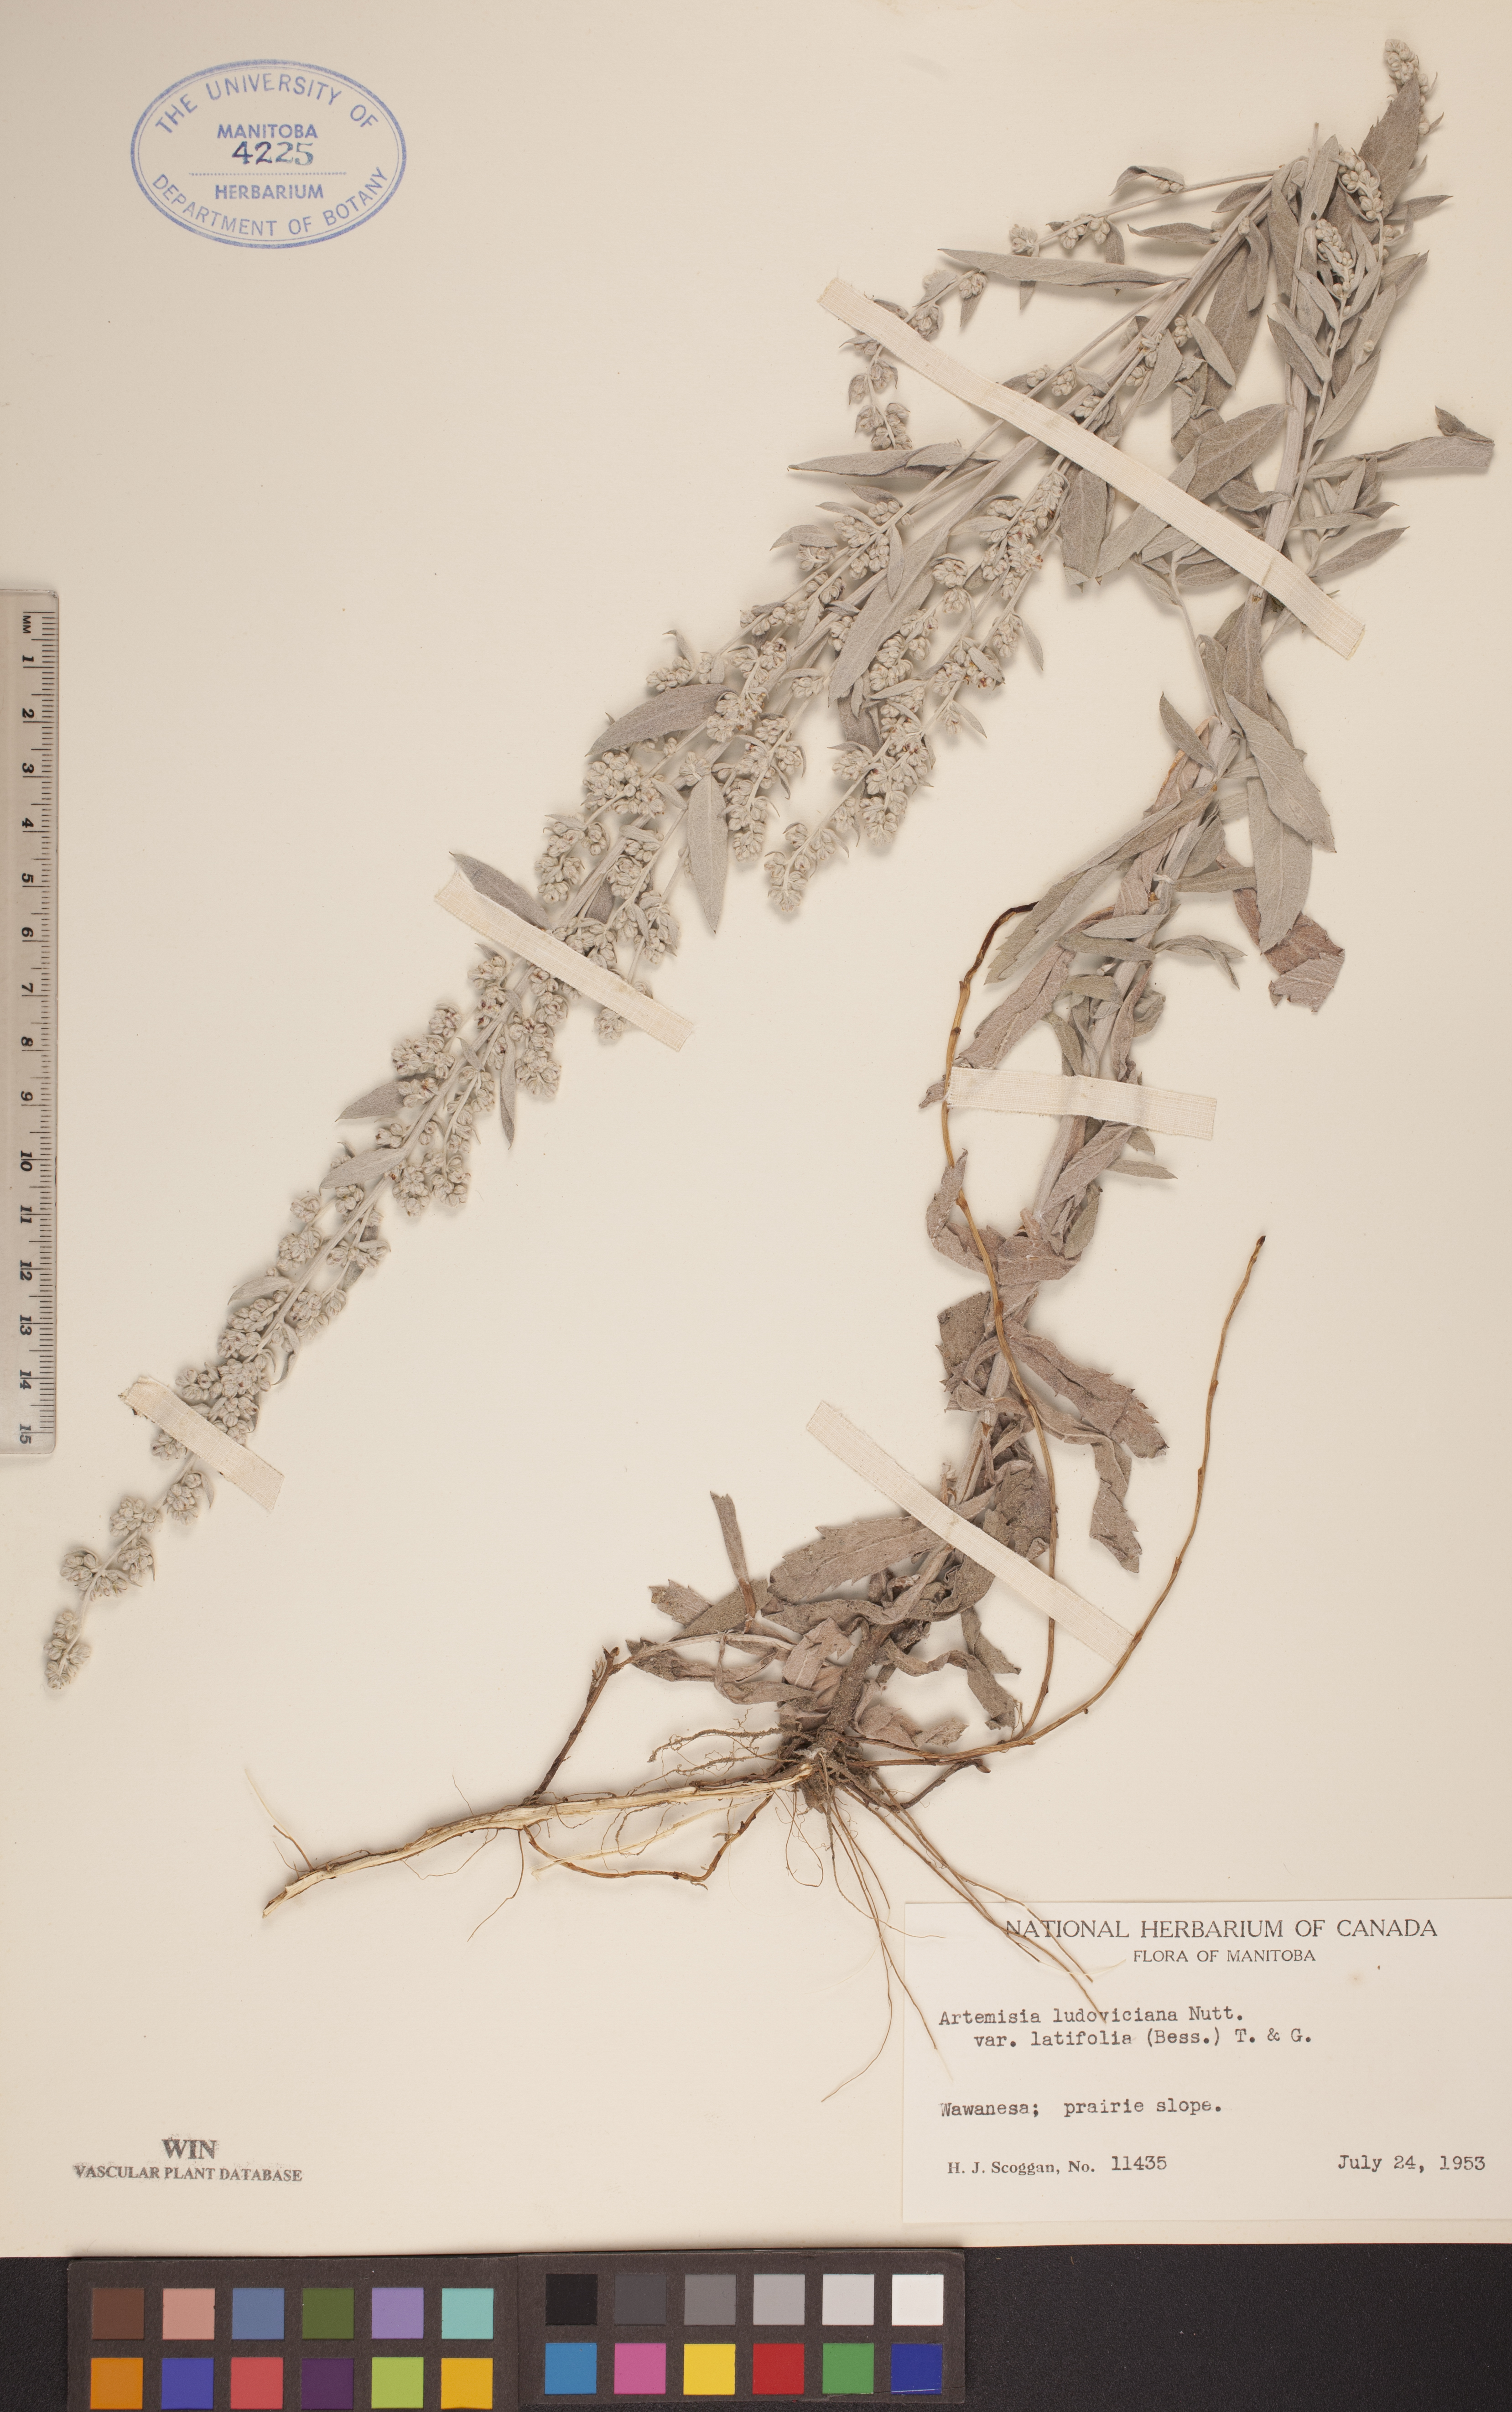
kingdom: Plantae
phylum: Tracheophyta
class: Magnoliopsida
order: Asterales
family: Asteraceae
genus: Artemisia
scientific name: Artemisia ludoviciana
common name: Western mugwort
